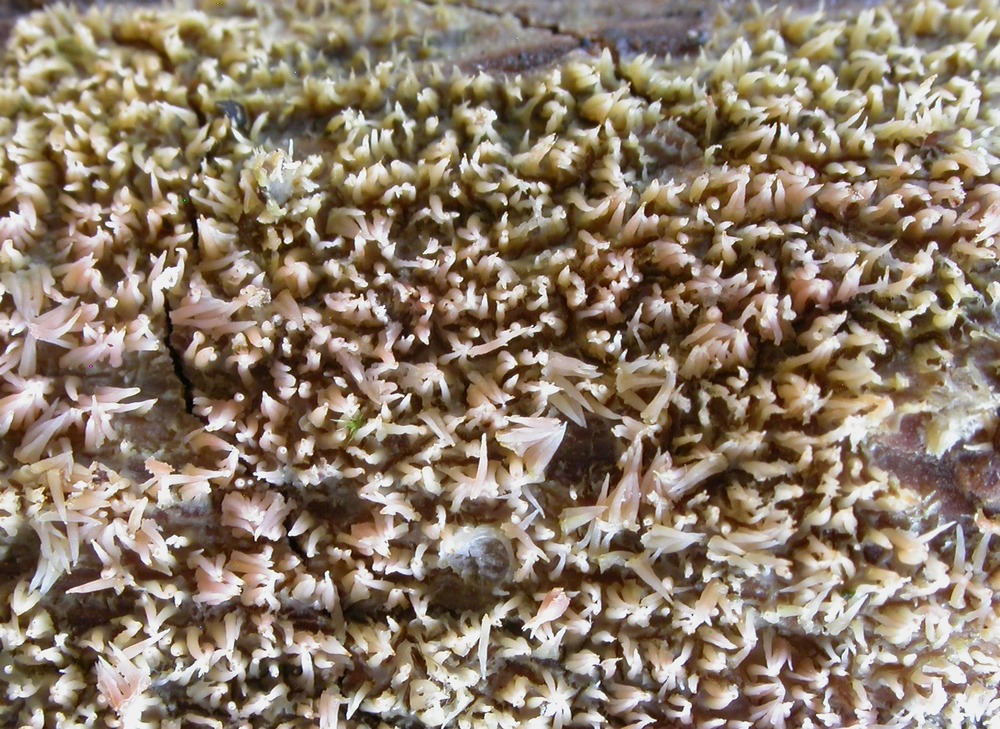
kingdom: Fungi
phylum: Basidiomycota
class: Agaricomycetes
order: Polyporales
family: Meruliaceae
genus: Mycoacia
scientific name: Mycoacia uda
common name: citrongul vokspig
